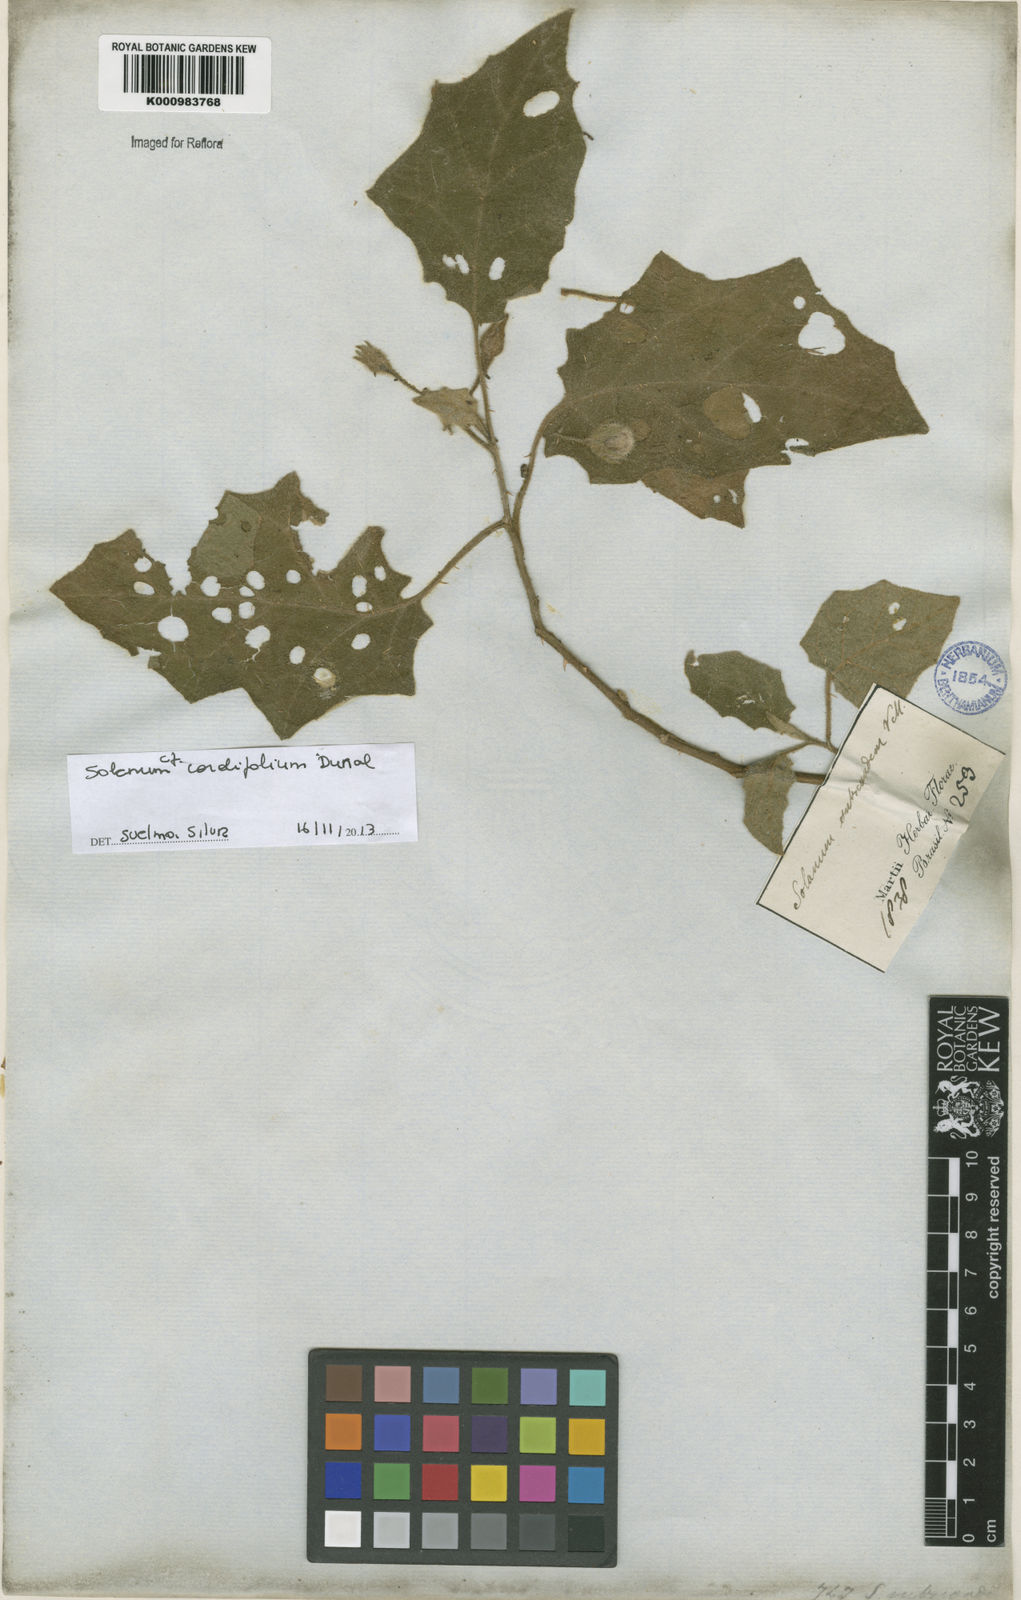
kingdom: Plantae
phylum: Tracheophyta
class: Magnoliopsida
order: Solanales
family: Solanaceae
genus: Solanum
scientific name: Solanum cordifolium
